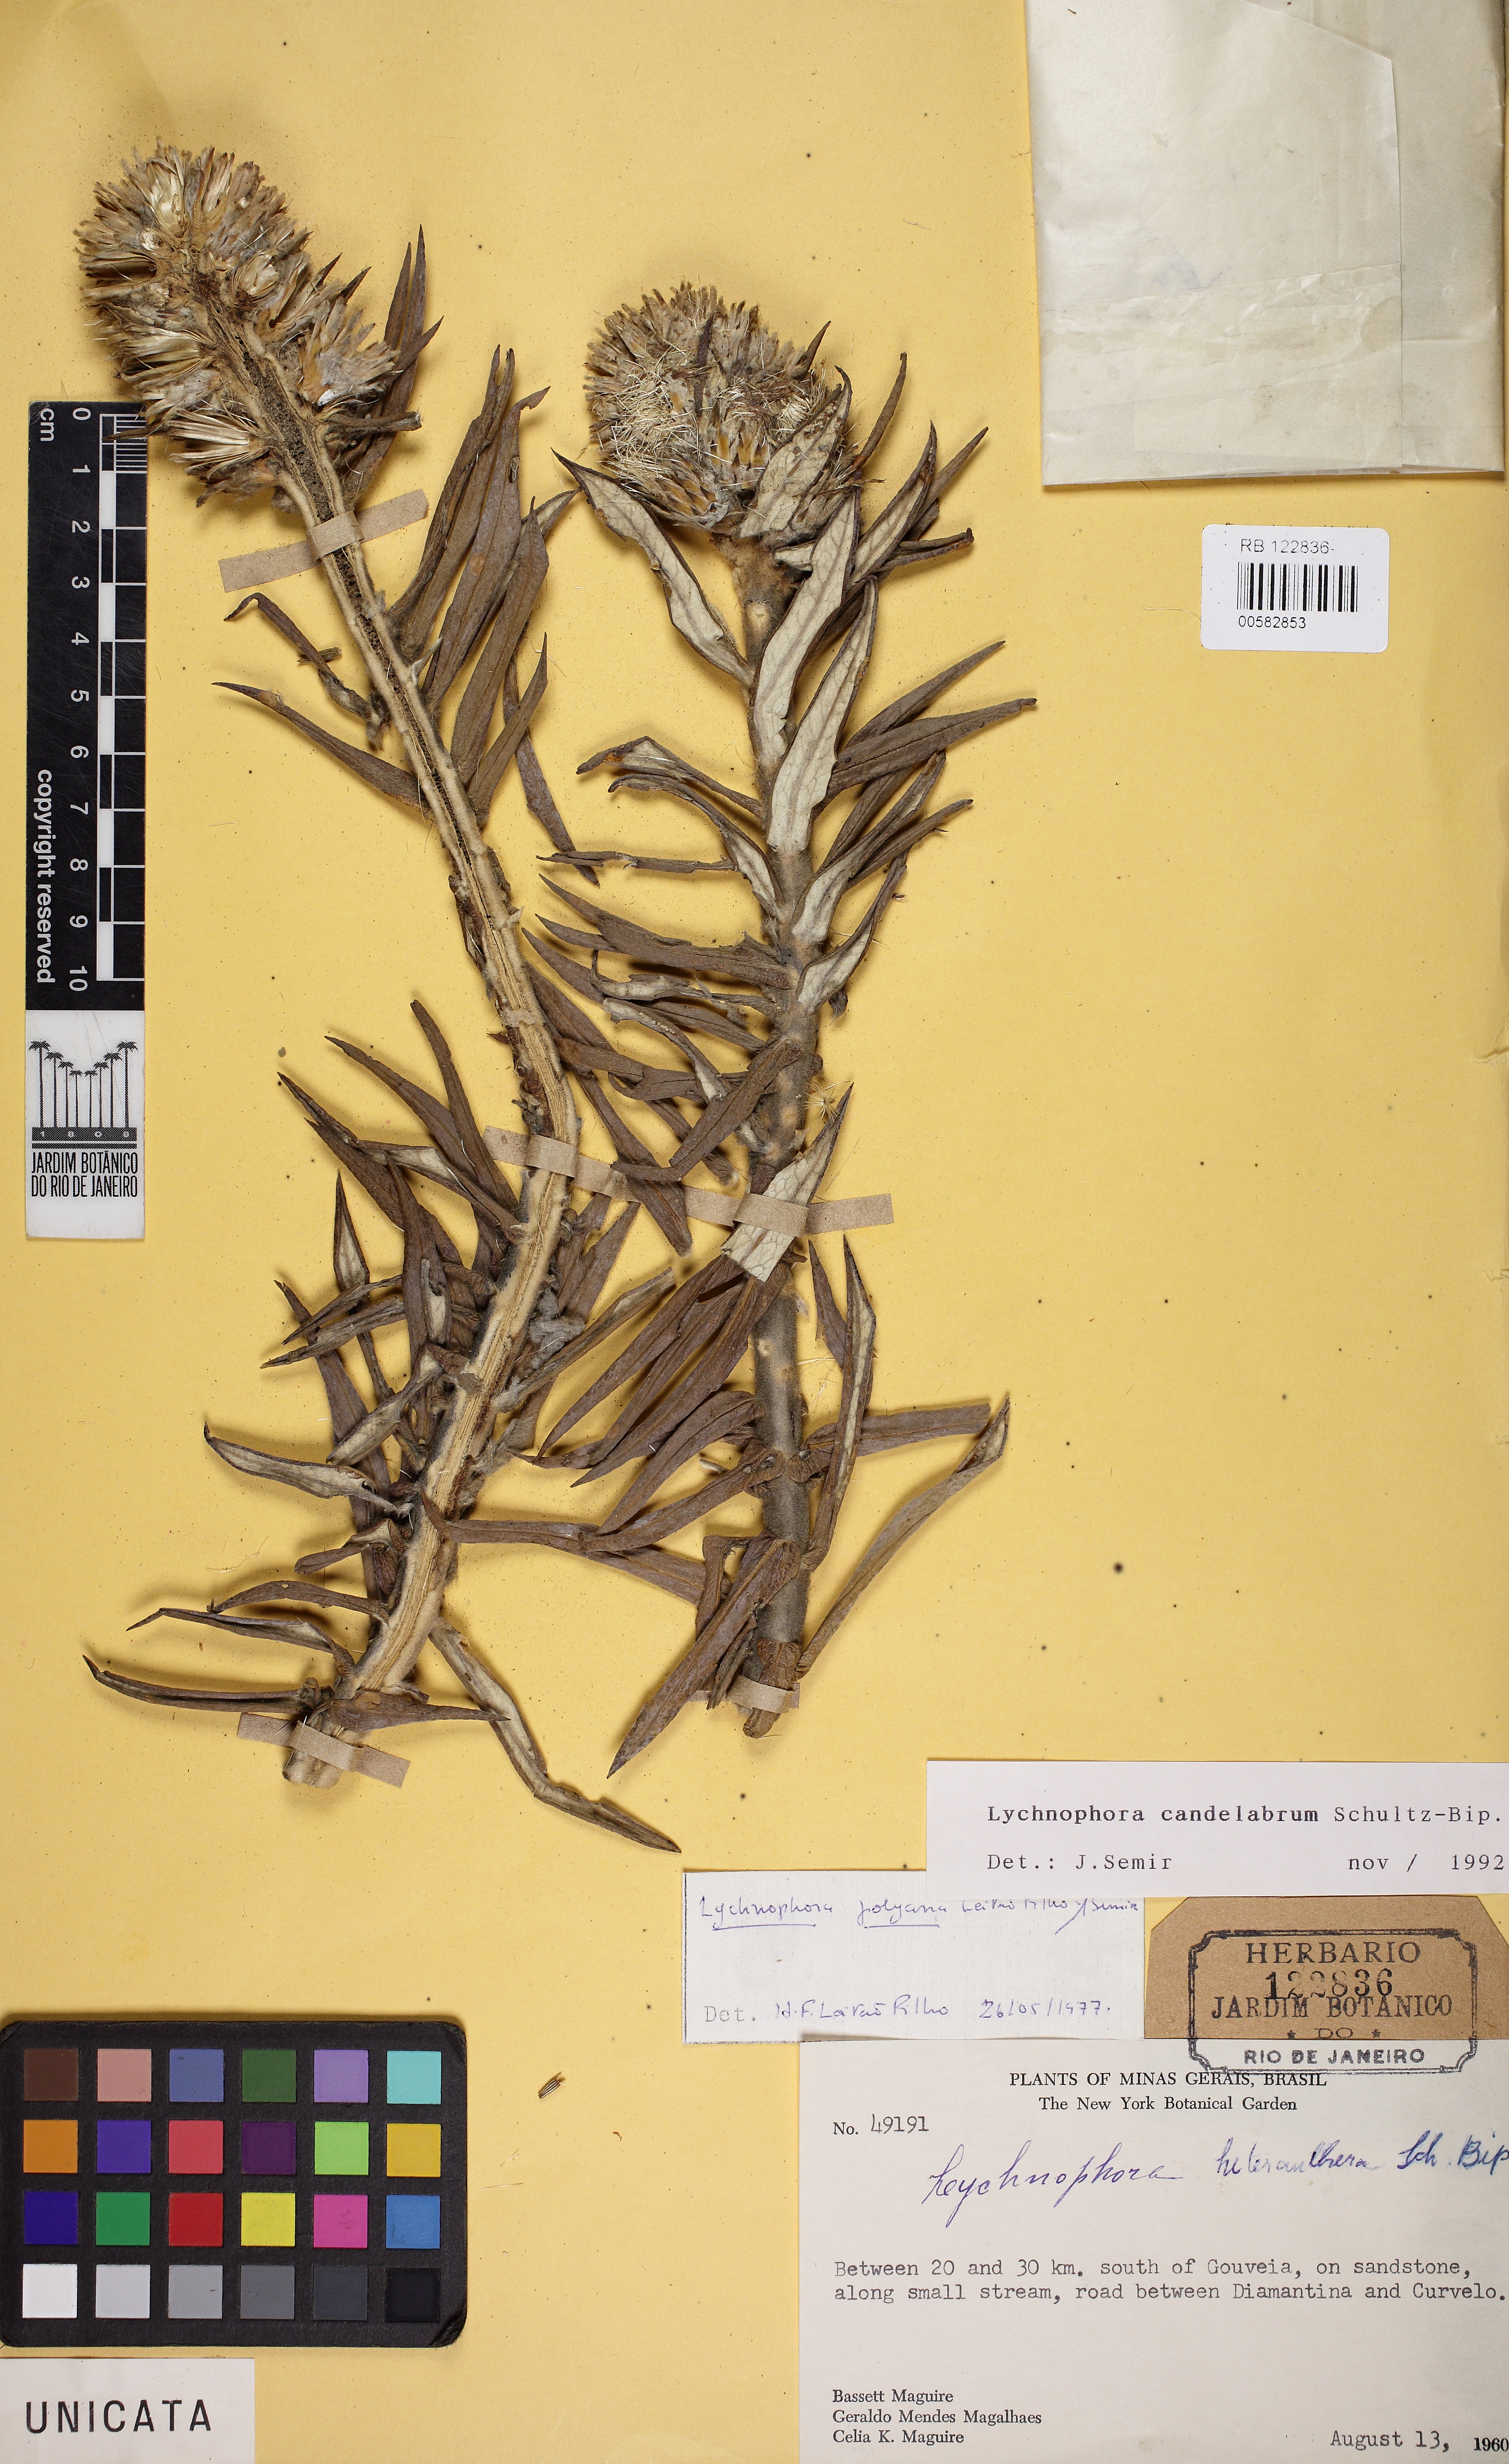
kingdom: Plantae
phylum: Tracheophyta
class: Magnoliopsida
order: Asterales
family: Asteraceae
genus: Lychnophora
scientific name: Lychnophora candelabrum
